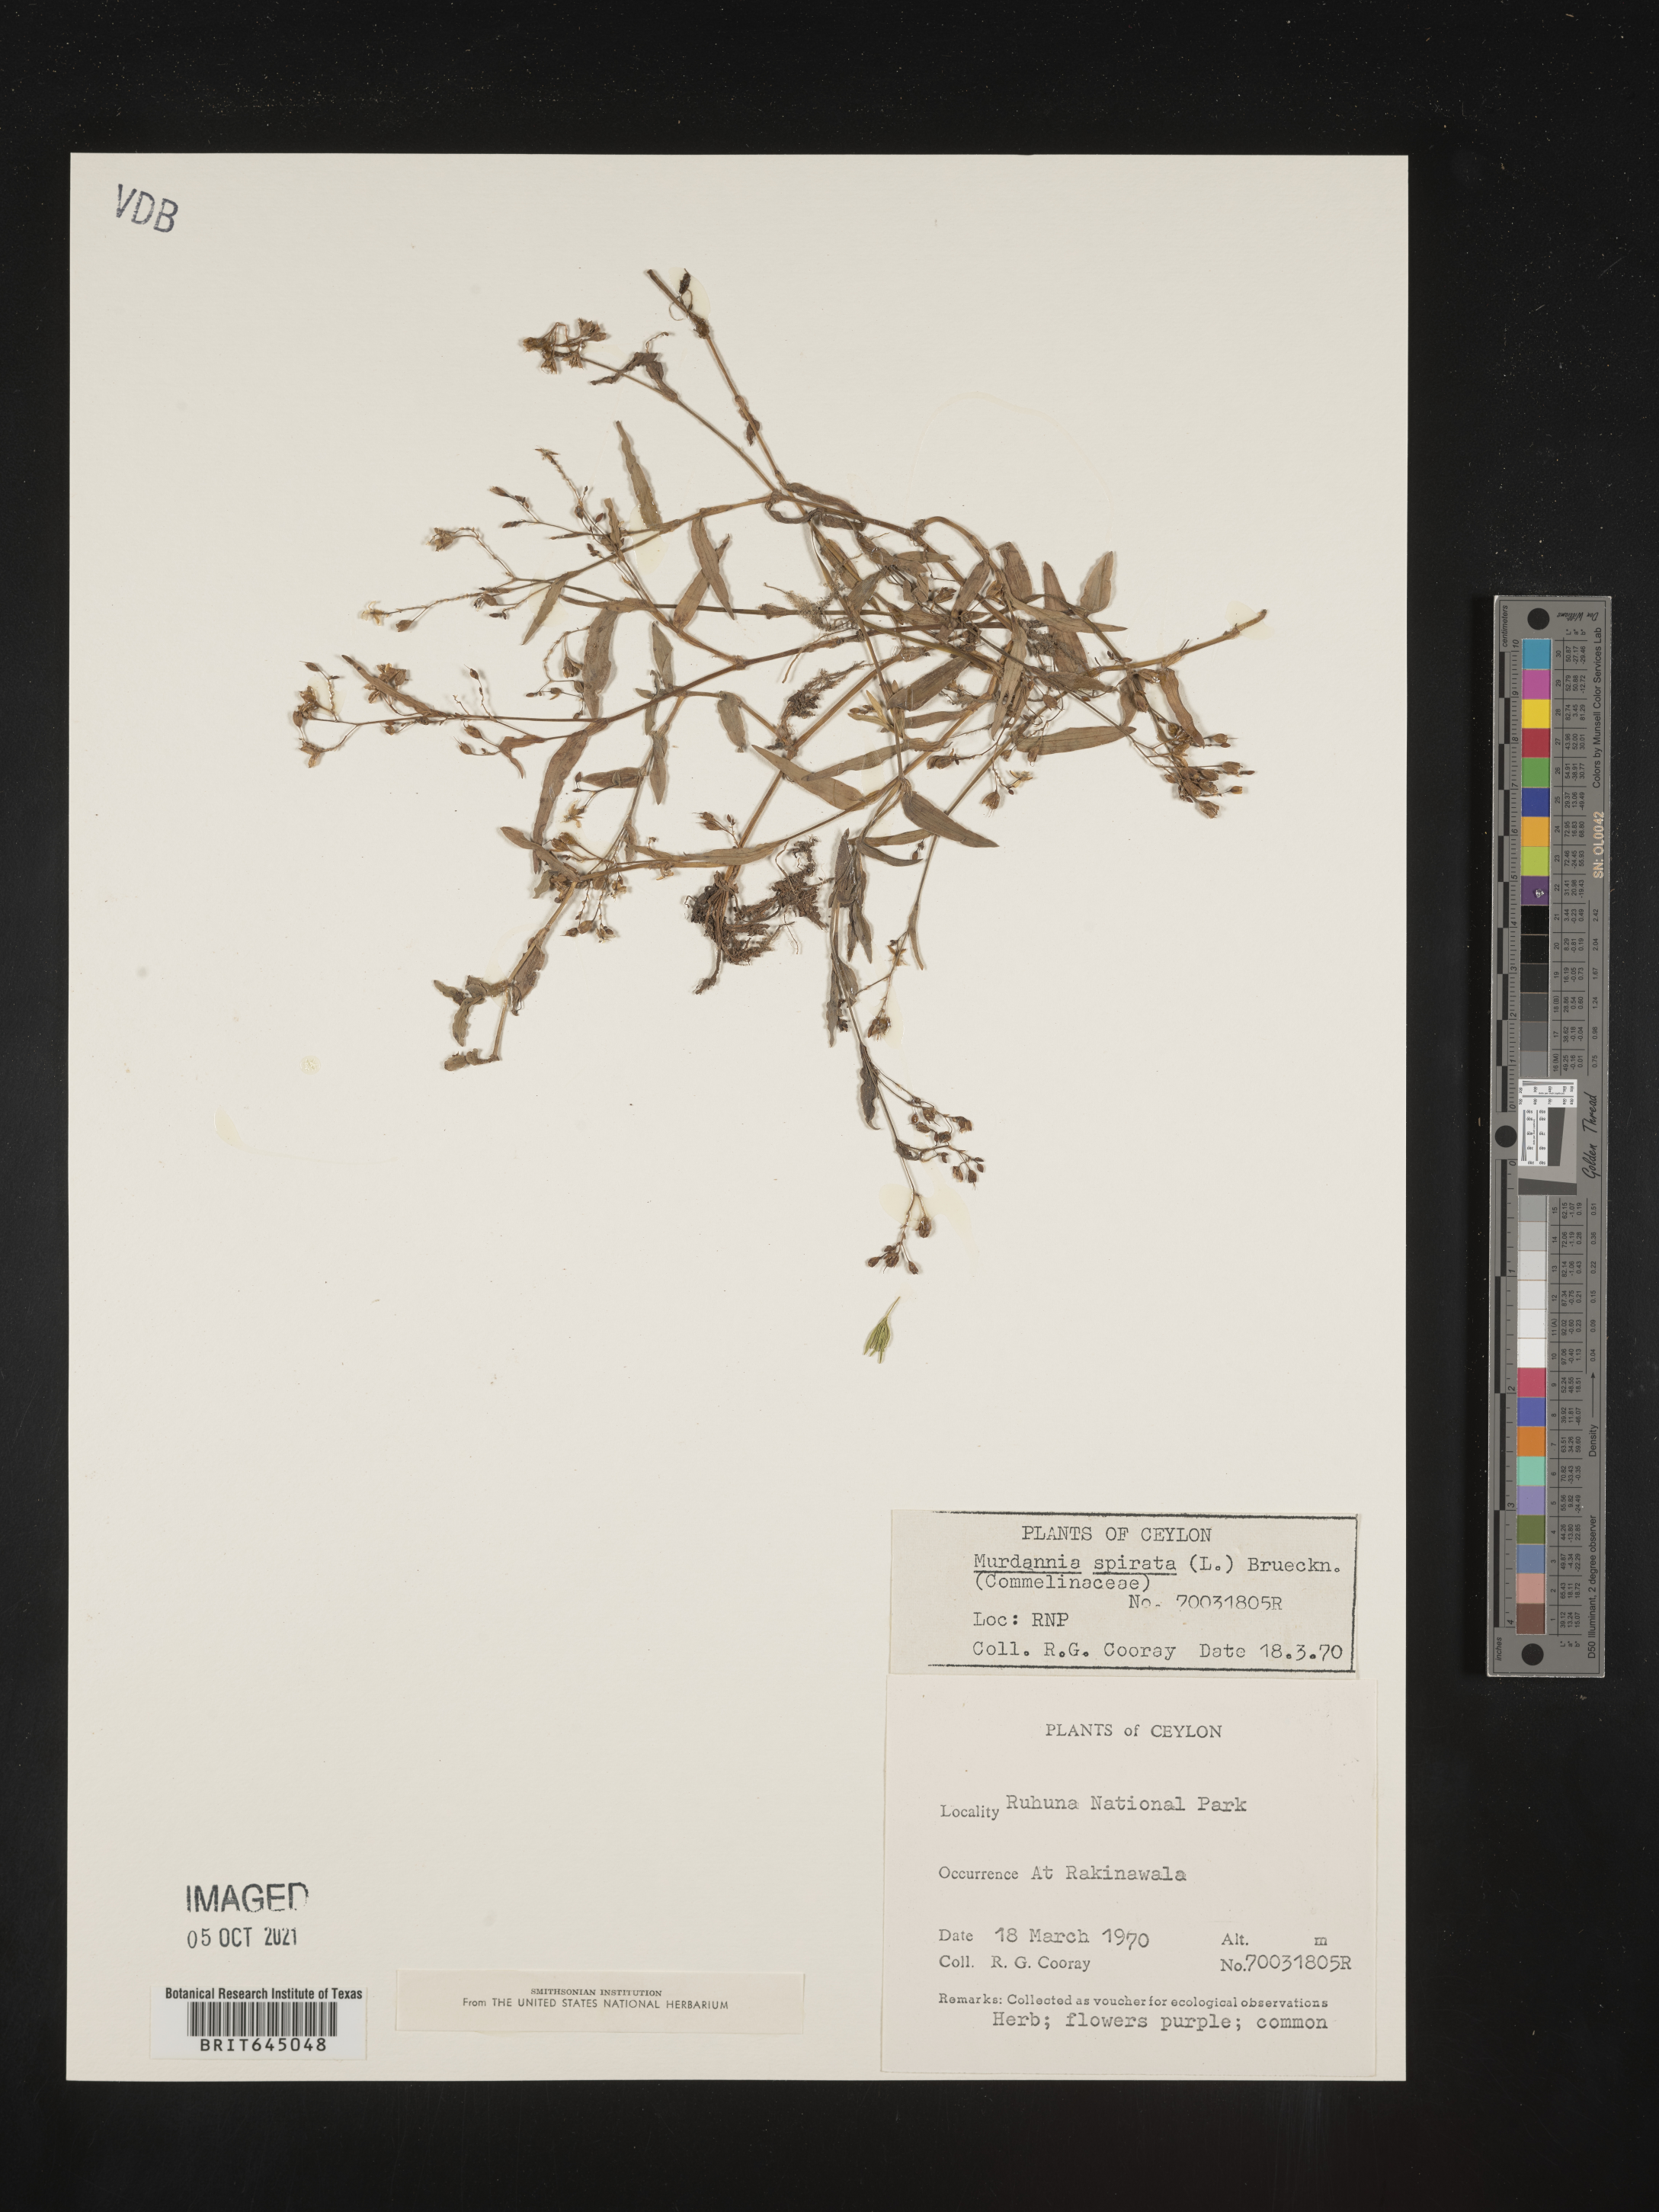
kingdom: Plantae
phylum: Tracheophyta
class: Liliopsida
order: Commelinales
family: Commelinaceae
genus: Murdannia
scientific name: Murdannia spirata
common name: Asiatic dewflower
